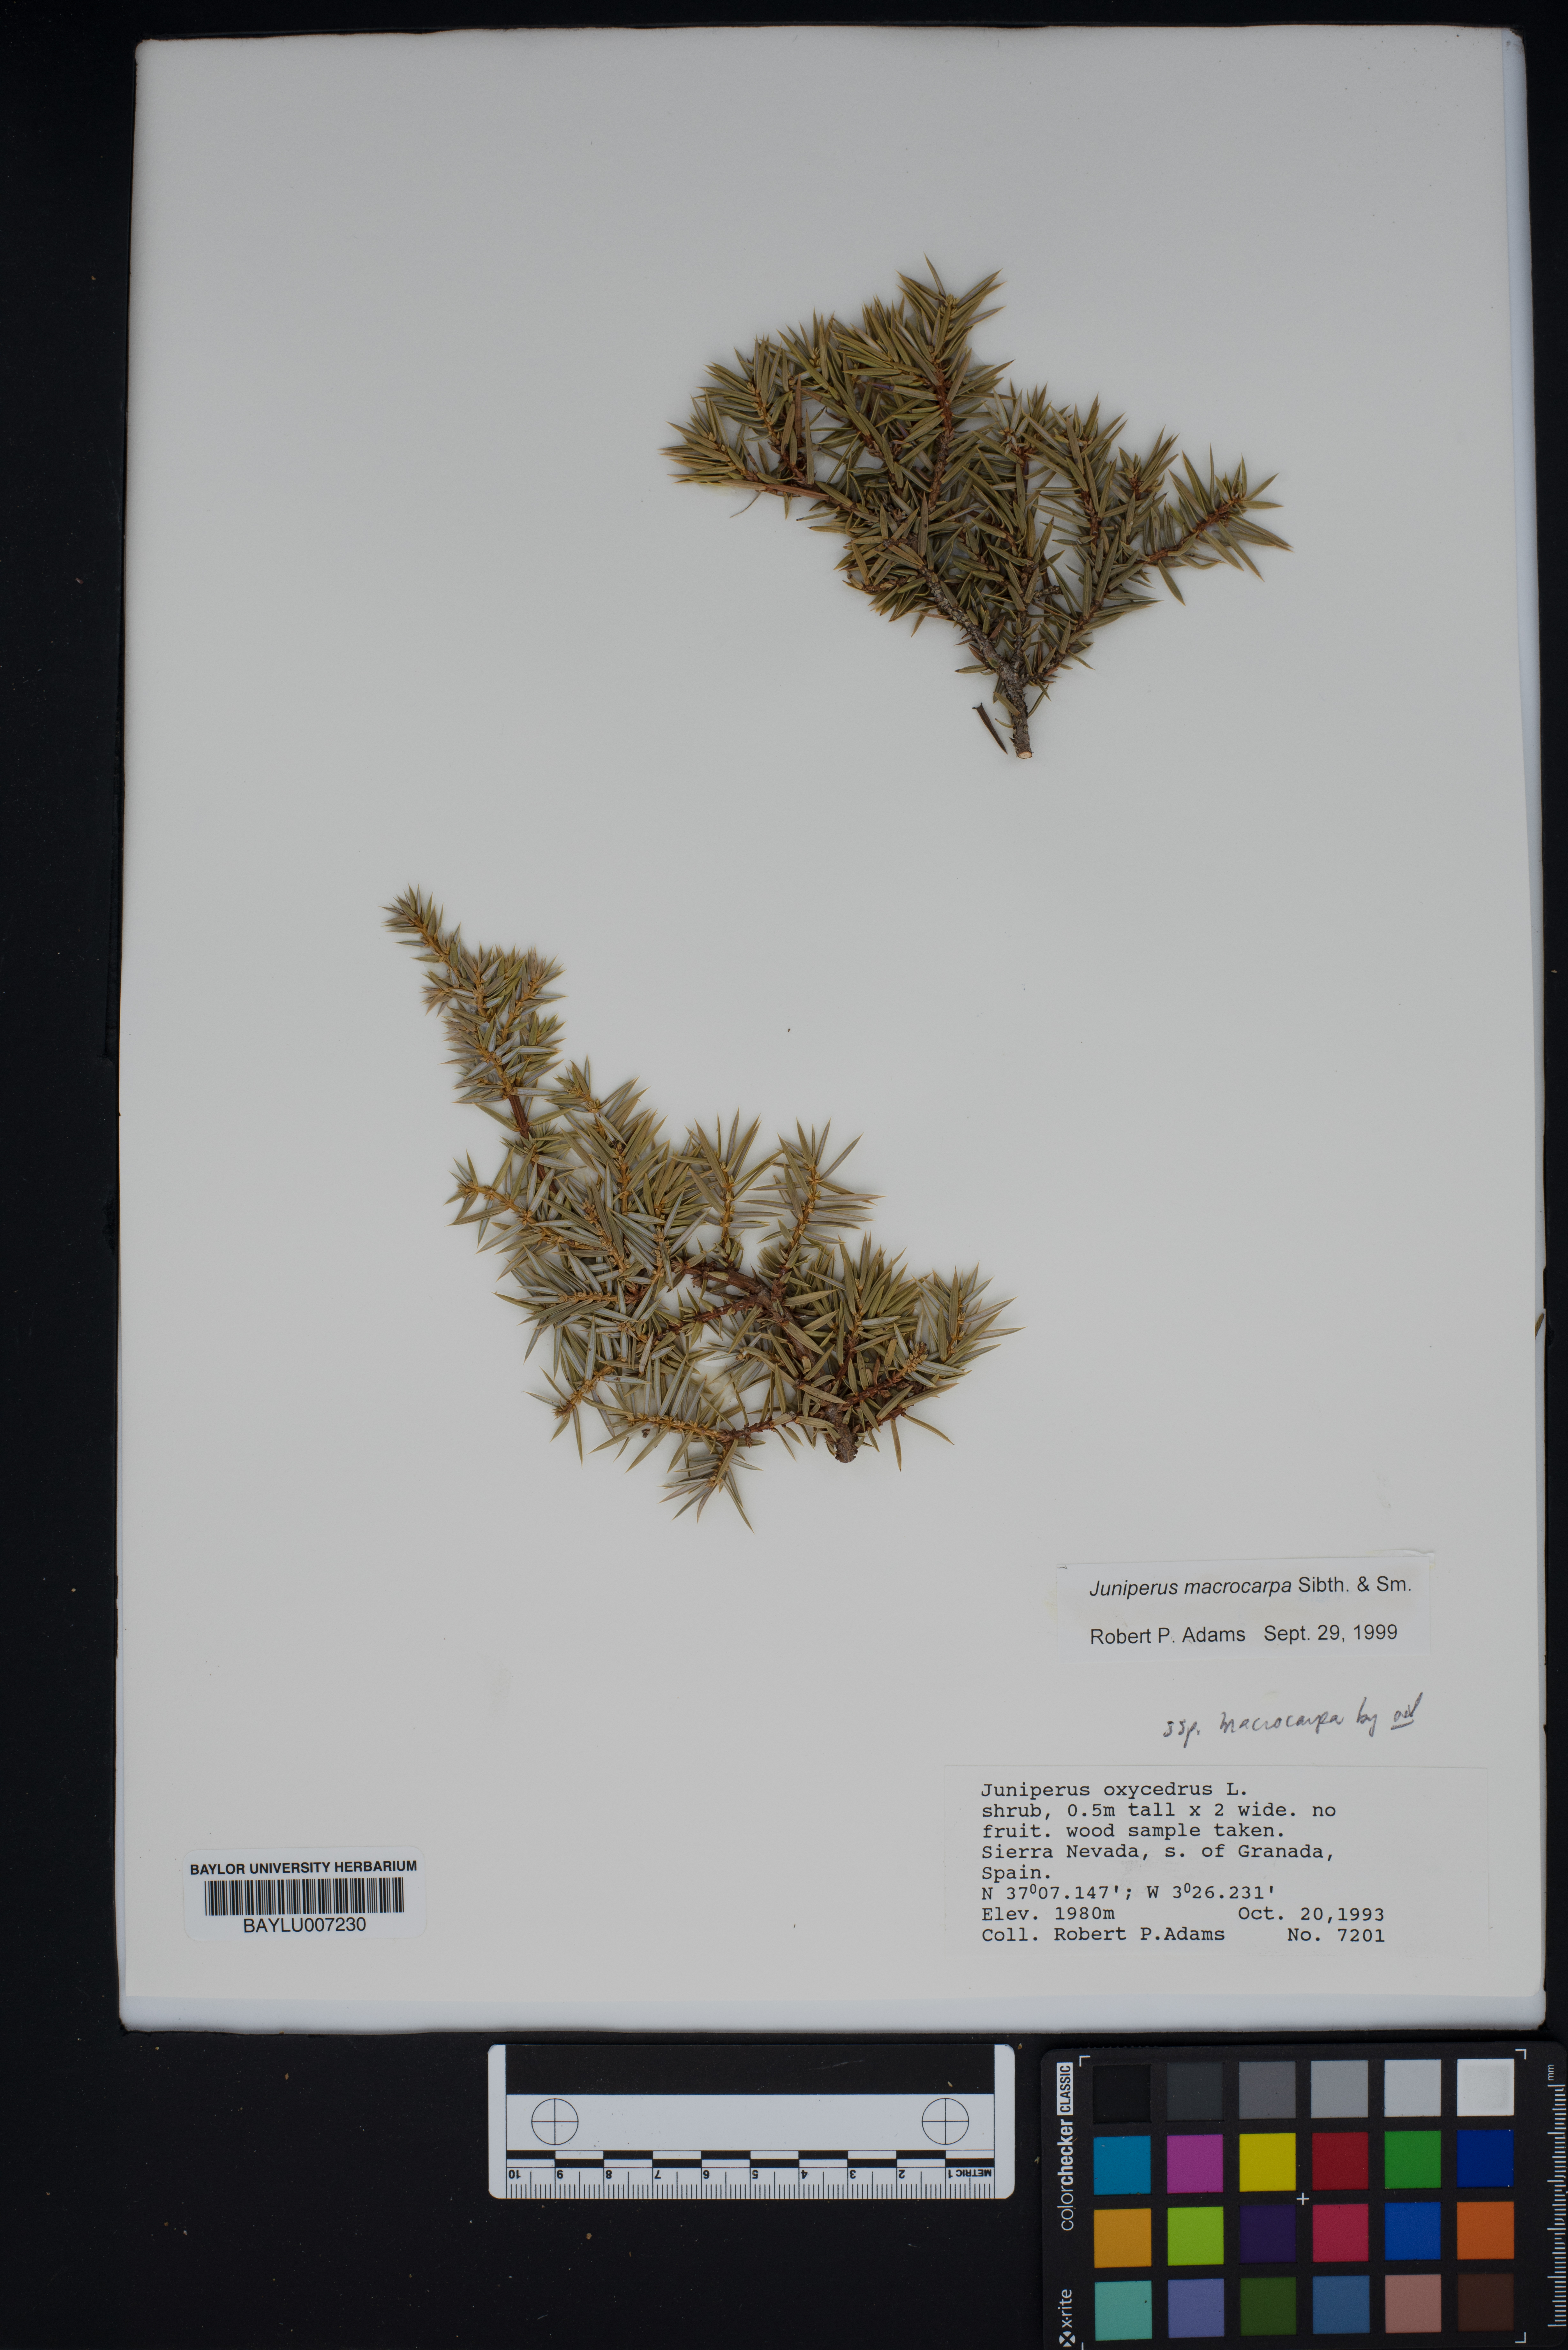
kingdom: Plantae
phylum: Tracheophyta
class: Pinopsida
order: Pinales
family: Cupressaceae
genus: Juniperus
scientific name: Juniperus oxycedrus
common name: Prickly juniper
